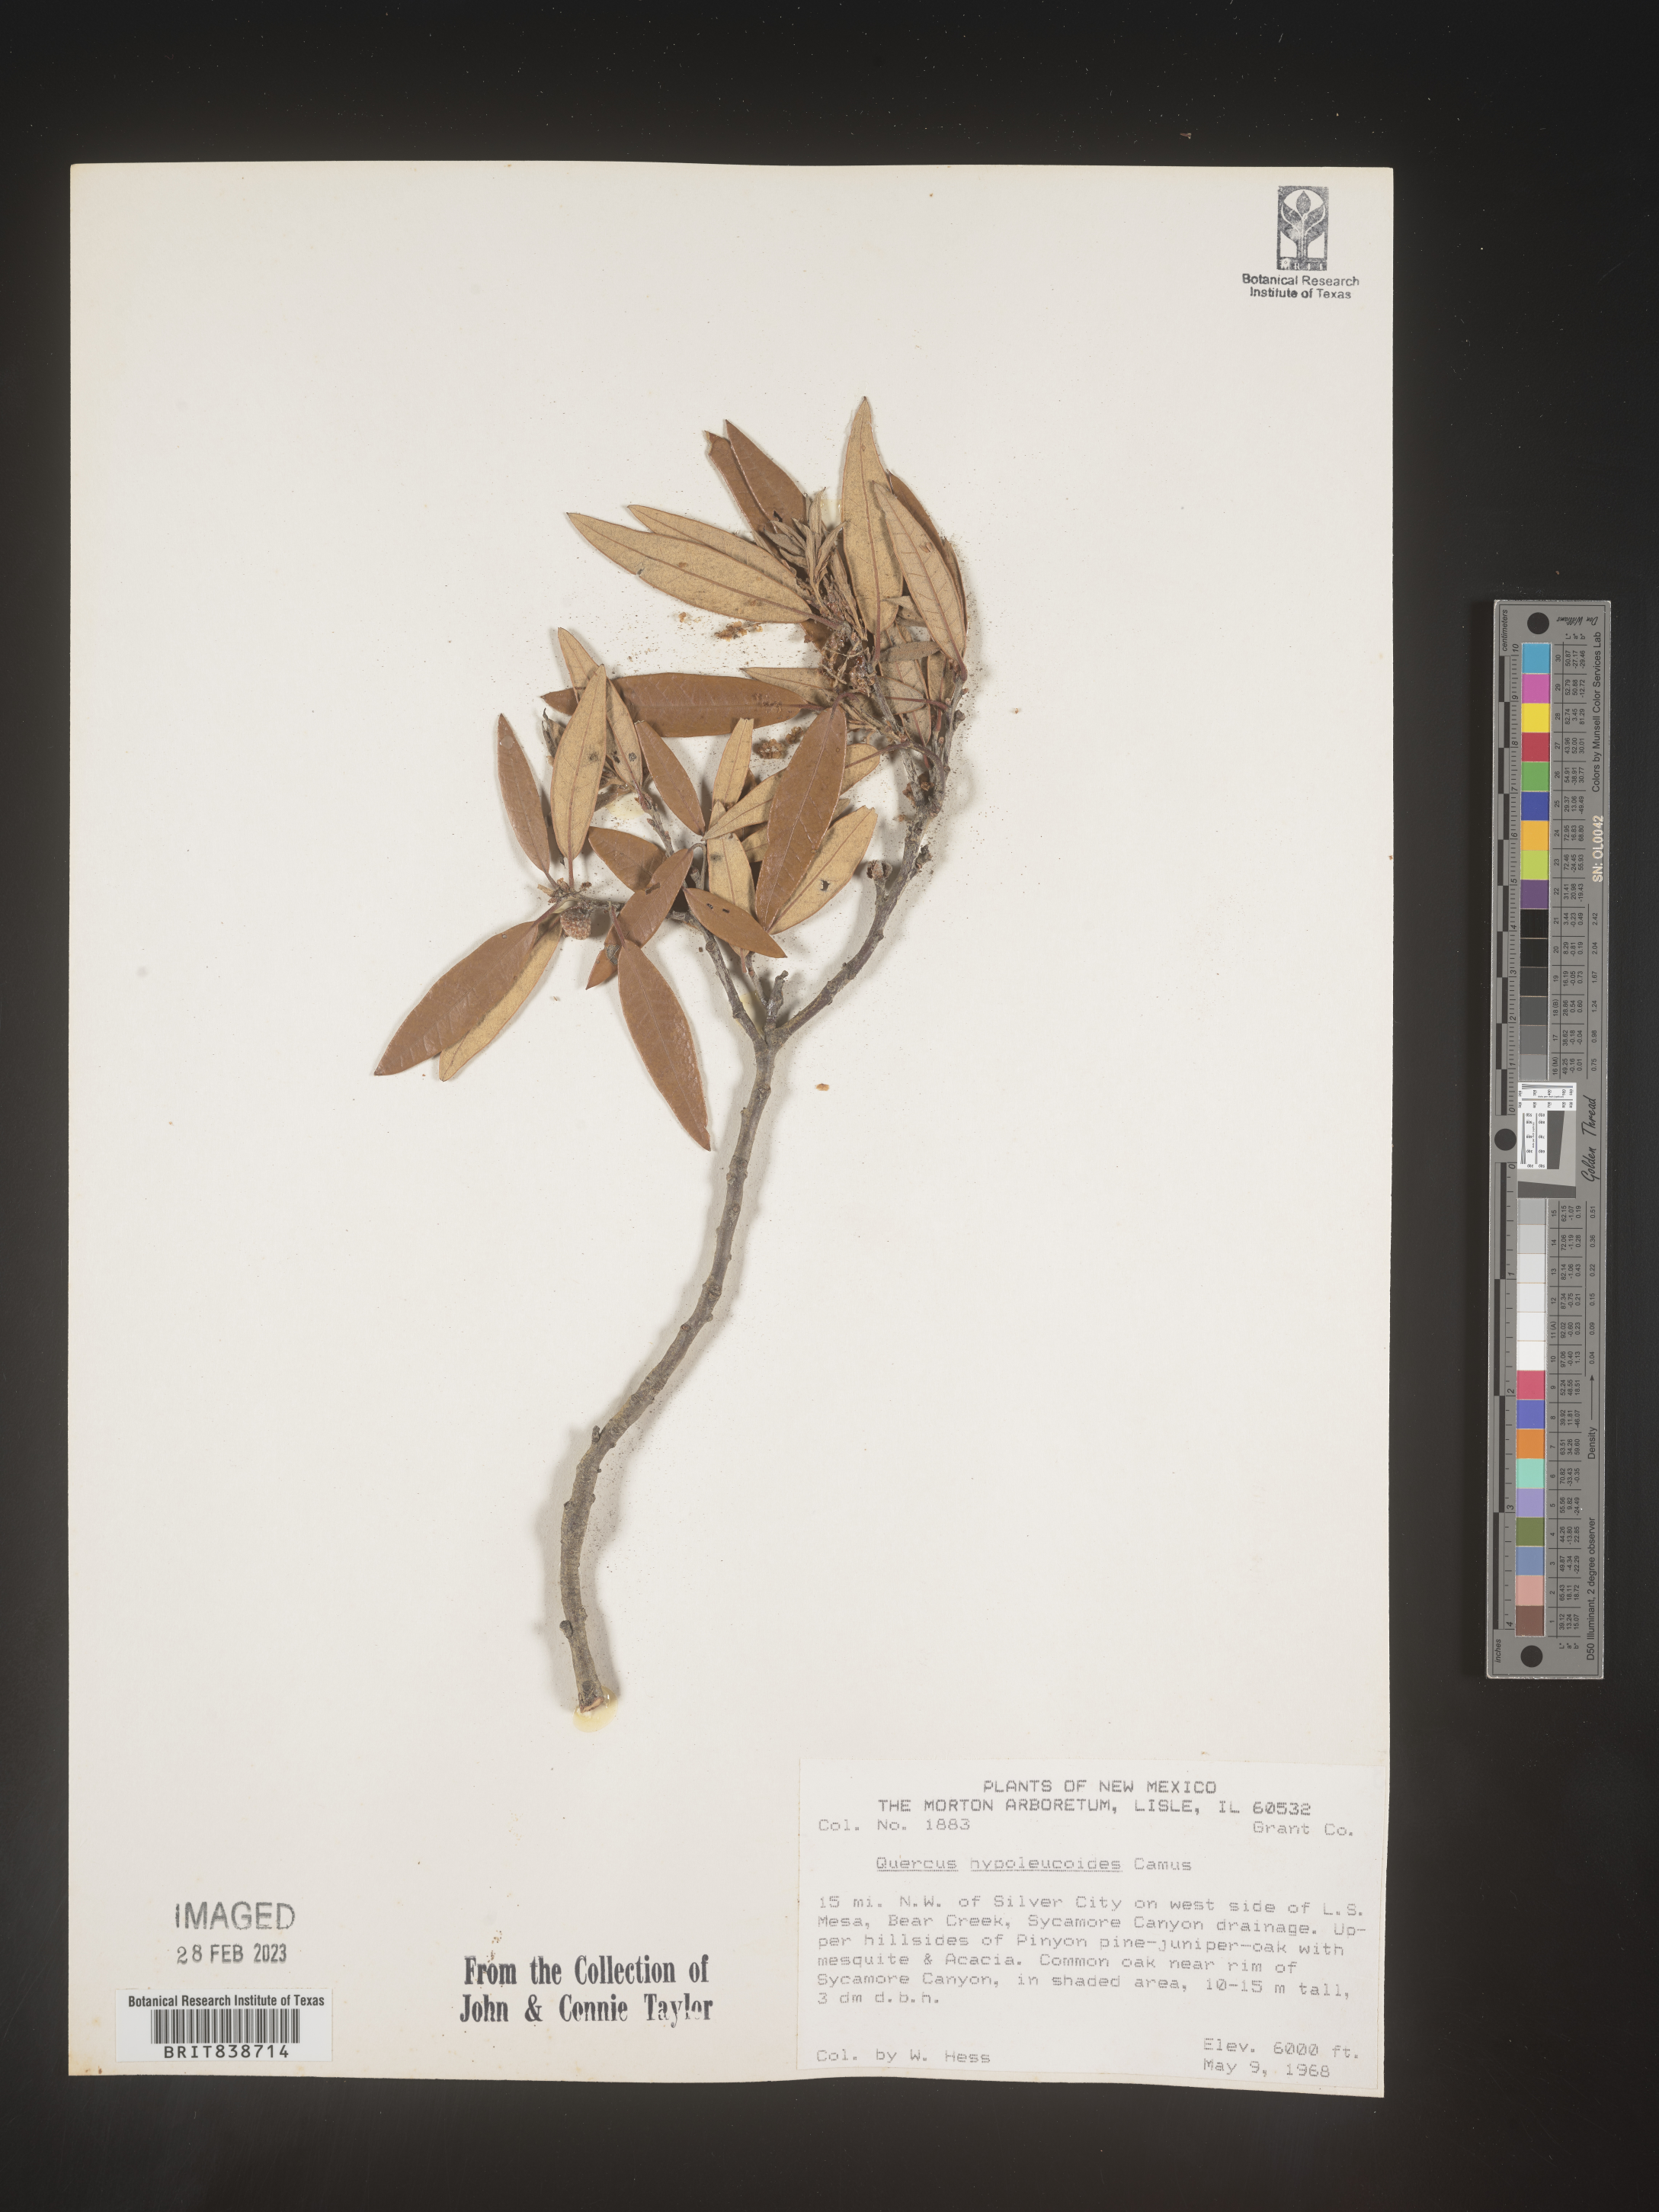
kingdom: Plantae
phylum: Tracheophyta
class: Magnoliopsida
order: Fagales
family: Fagaceae
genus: Quercus
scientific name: Quercus
